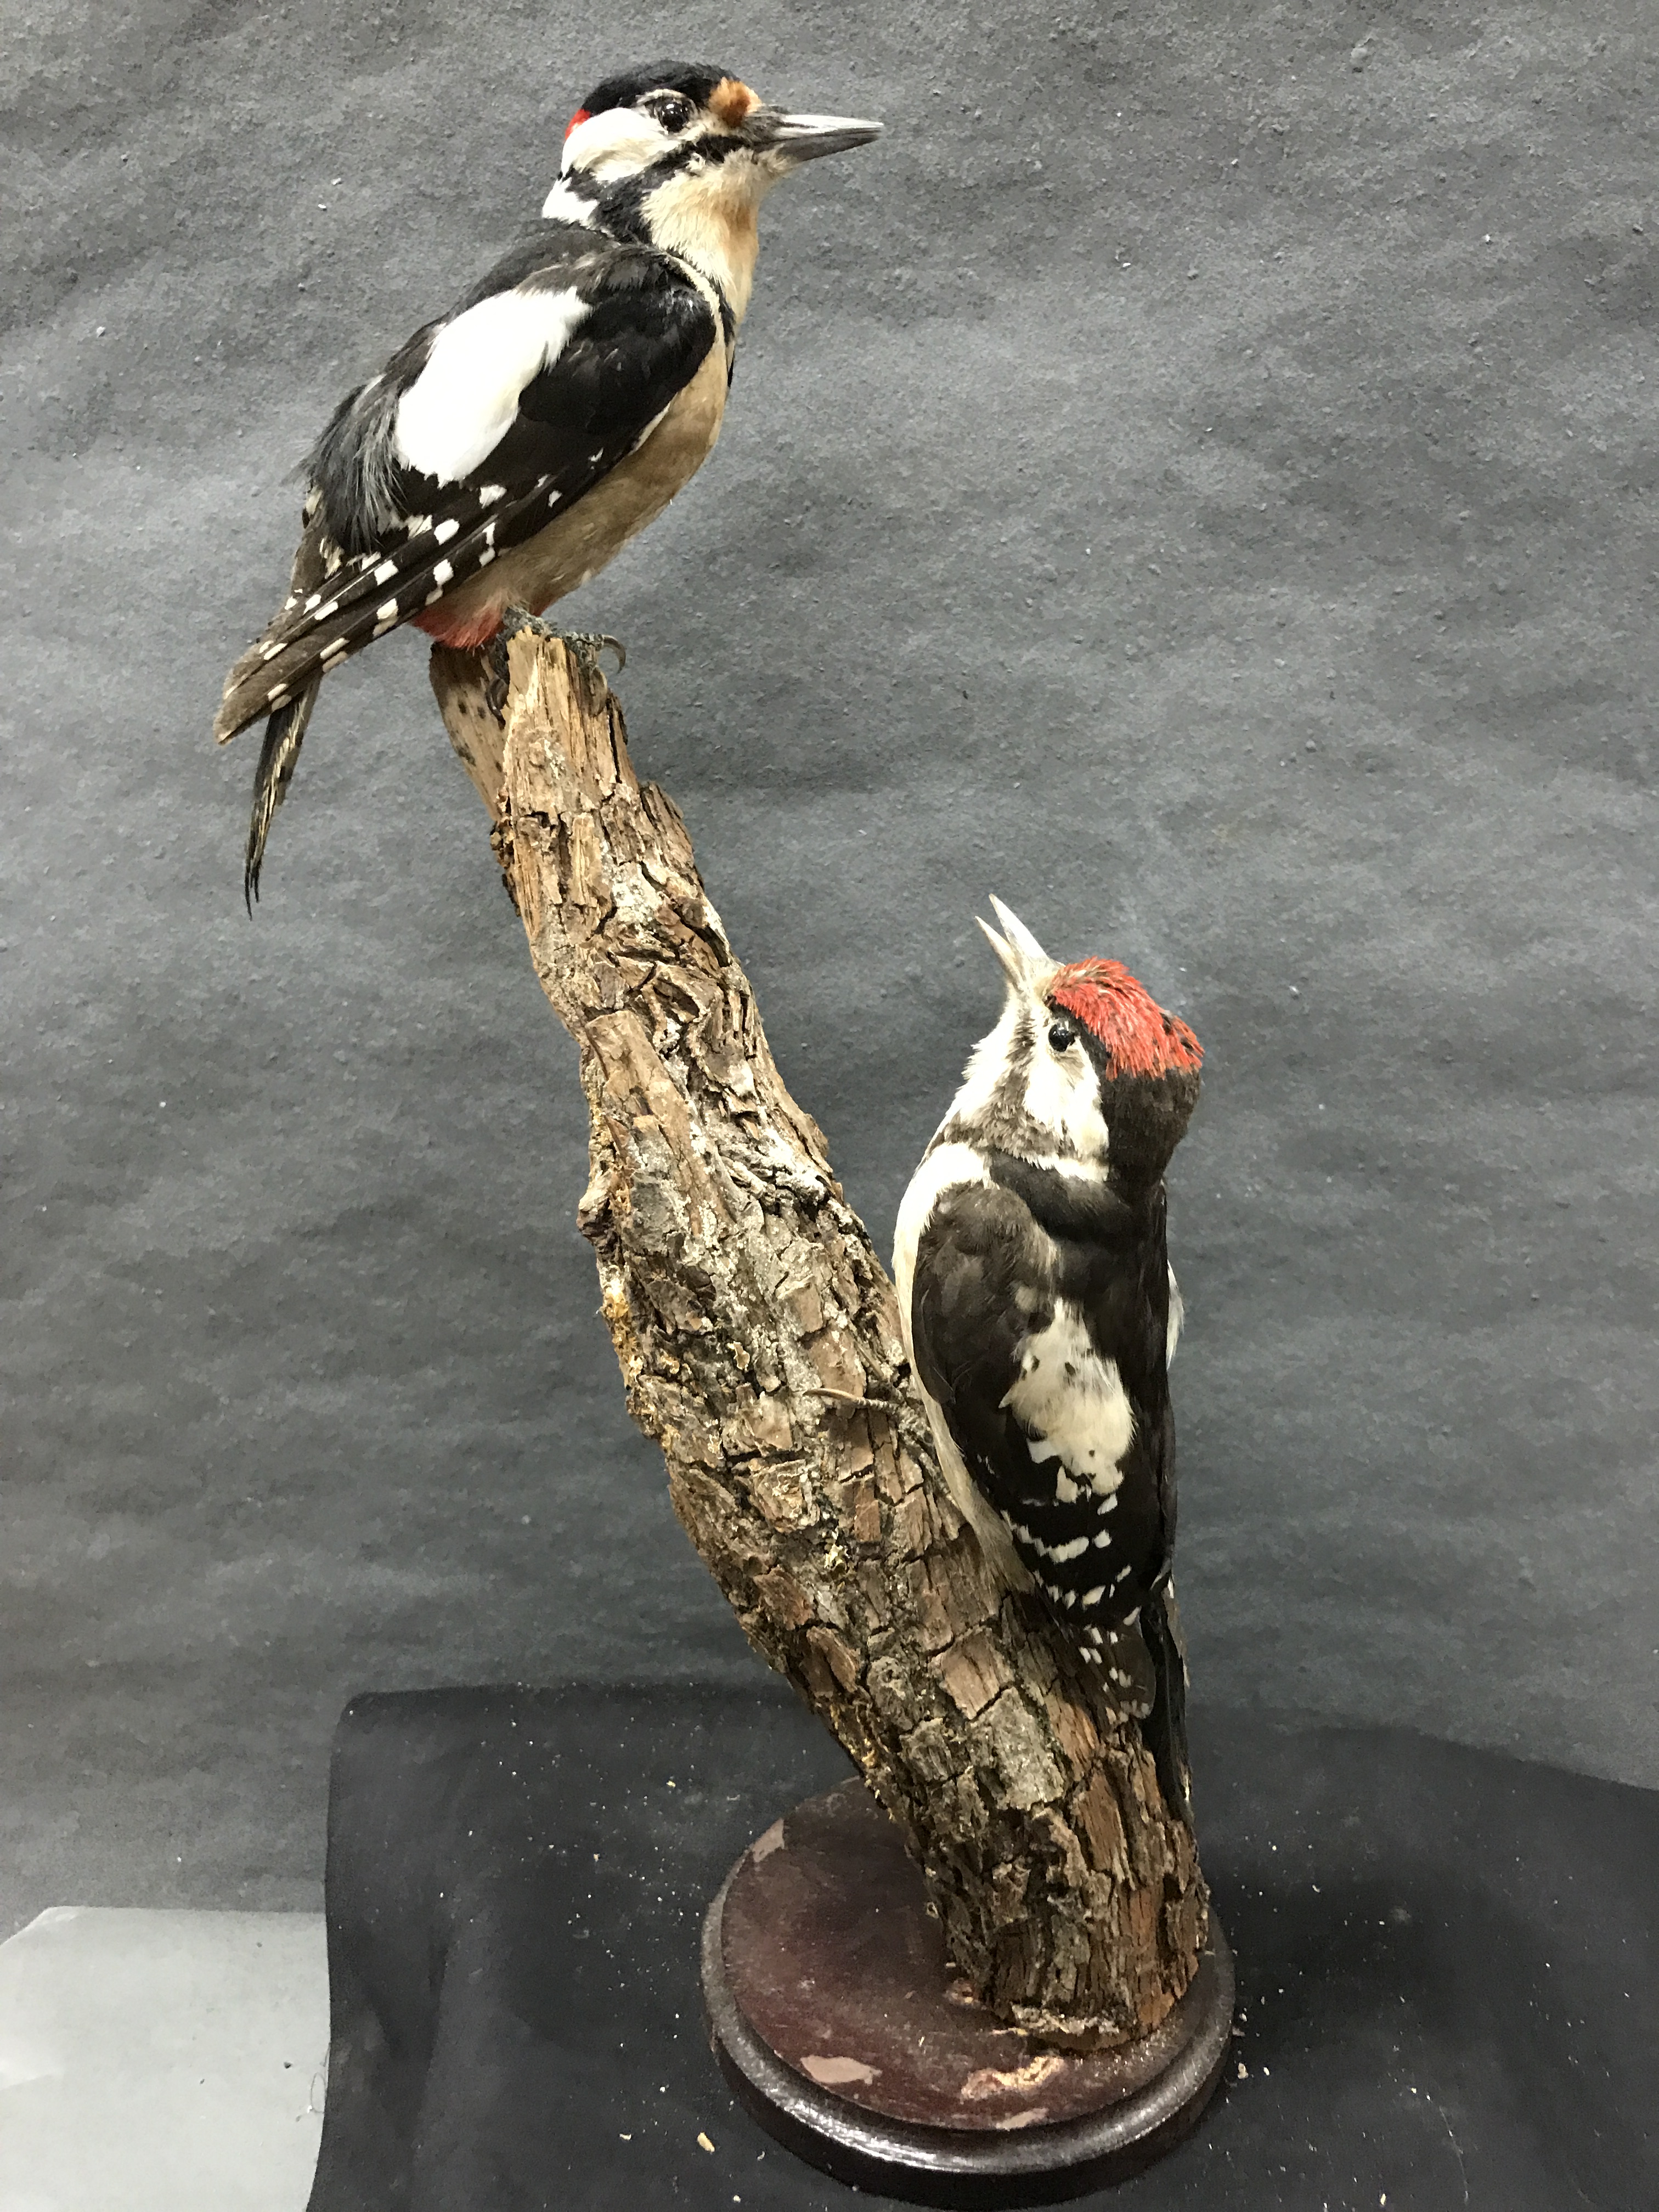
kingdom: Animalia
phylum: Chordata
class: Aves
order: Piciformes
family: Picidae
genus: Dendrocopos
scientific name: Dendrocopos major
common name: Great spotted woodpecker
